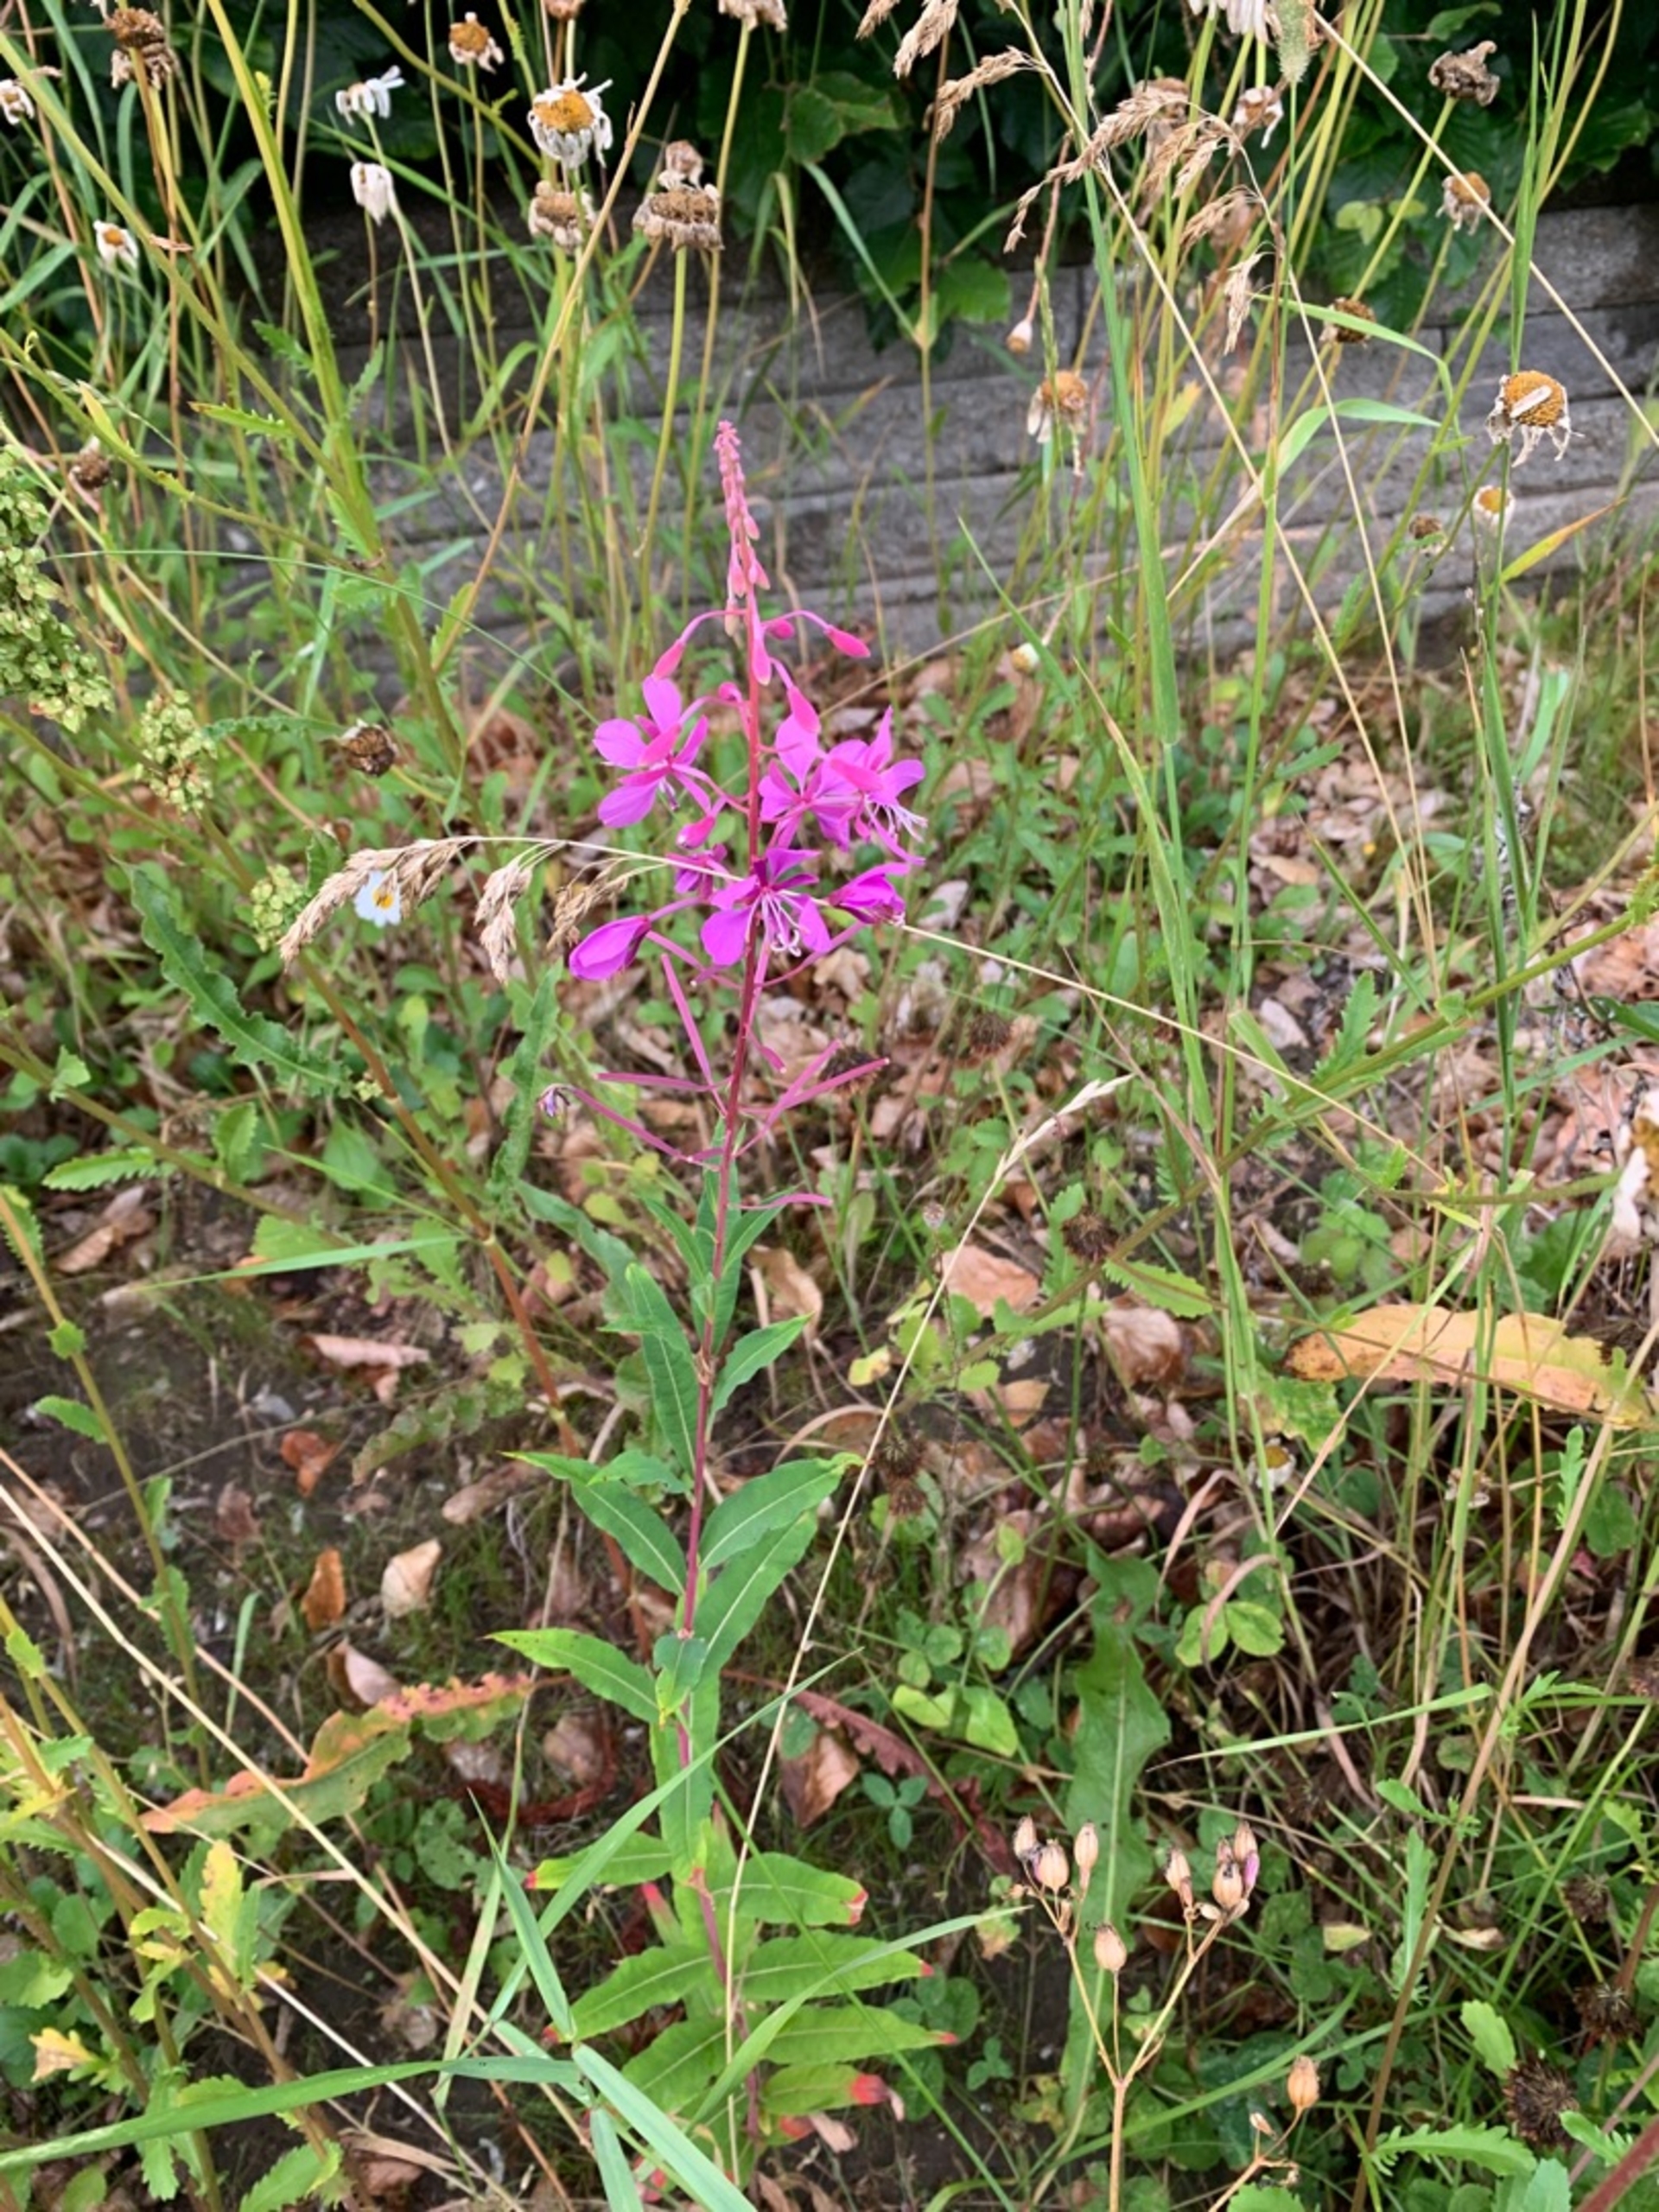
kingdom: Plantae
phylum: Tracheophyta
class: Magnoliopsida
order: Myrtales
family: Onagraceae
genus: Chamaenerion
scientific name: Chamaenerion angustifolium
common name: Gederams
